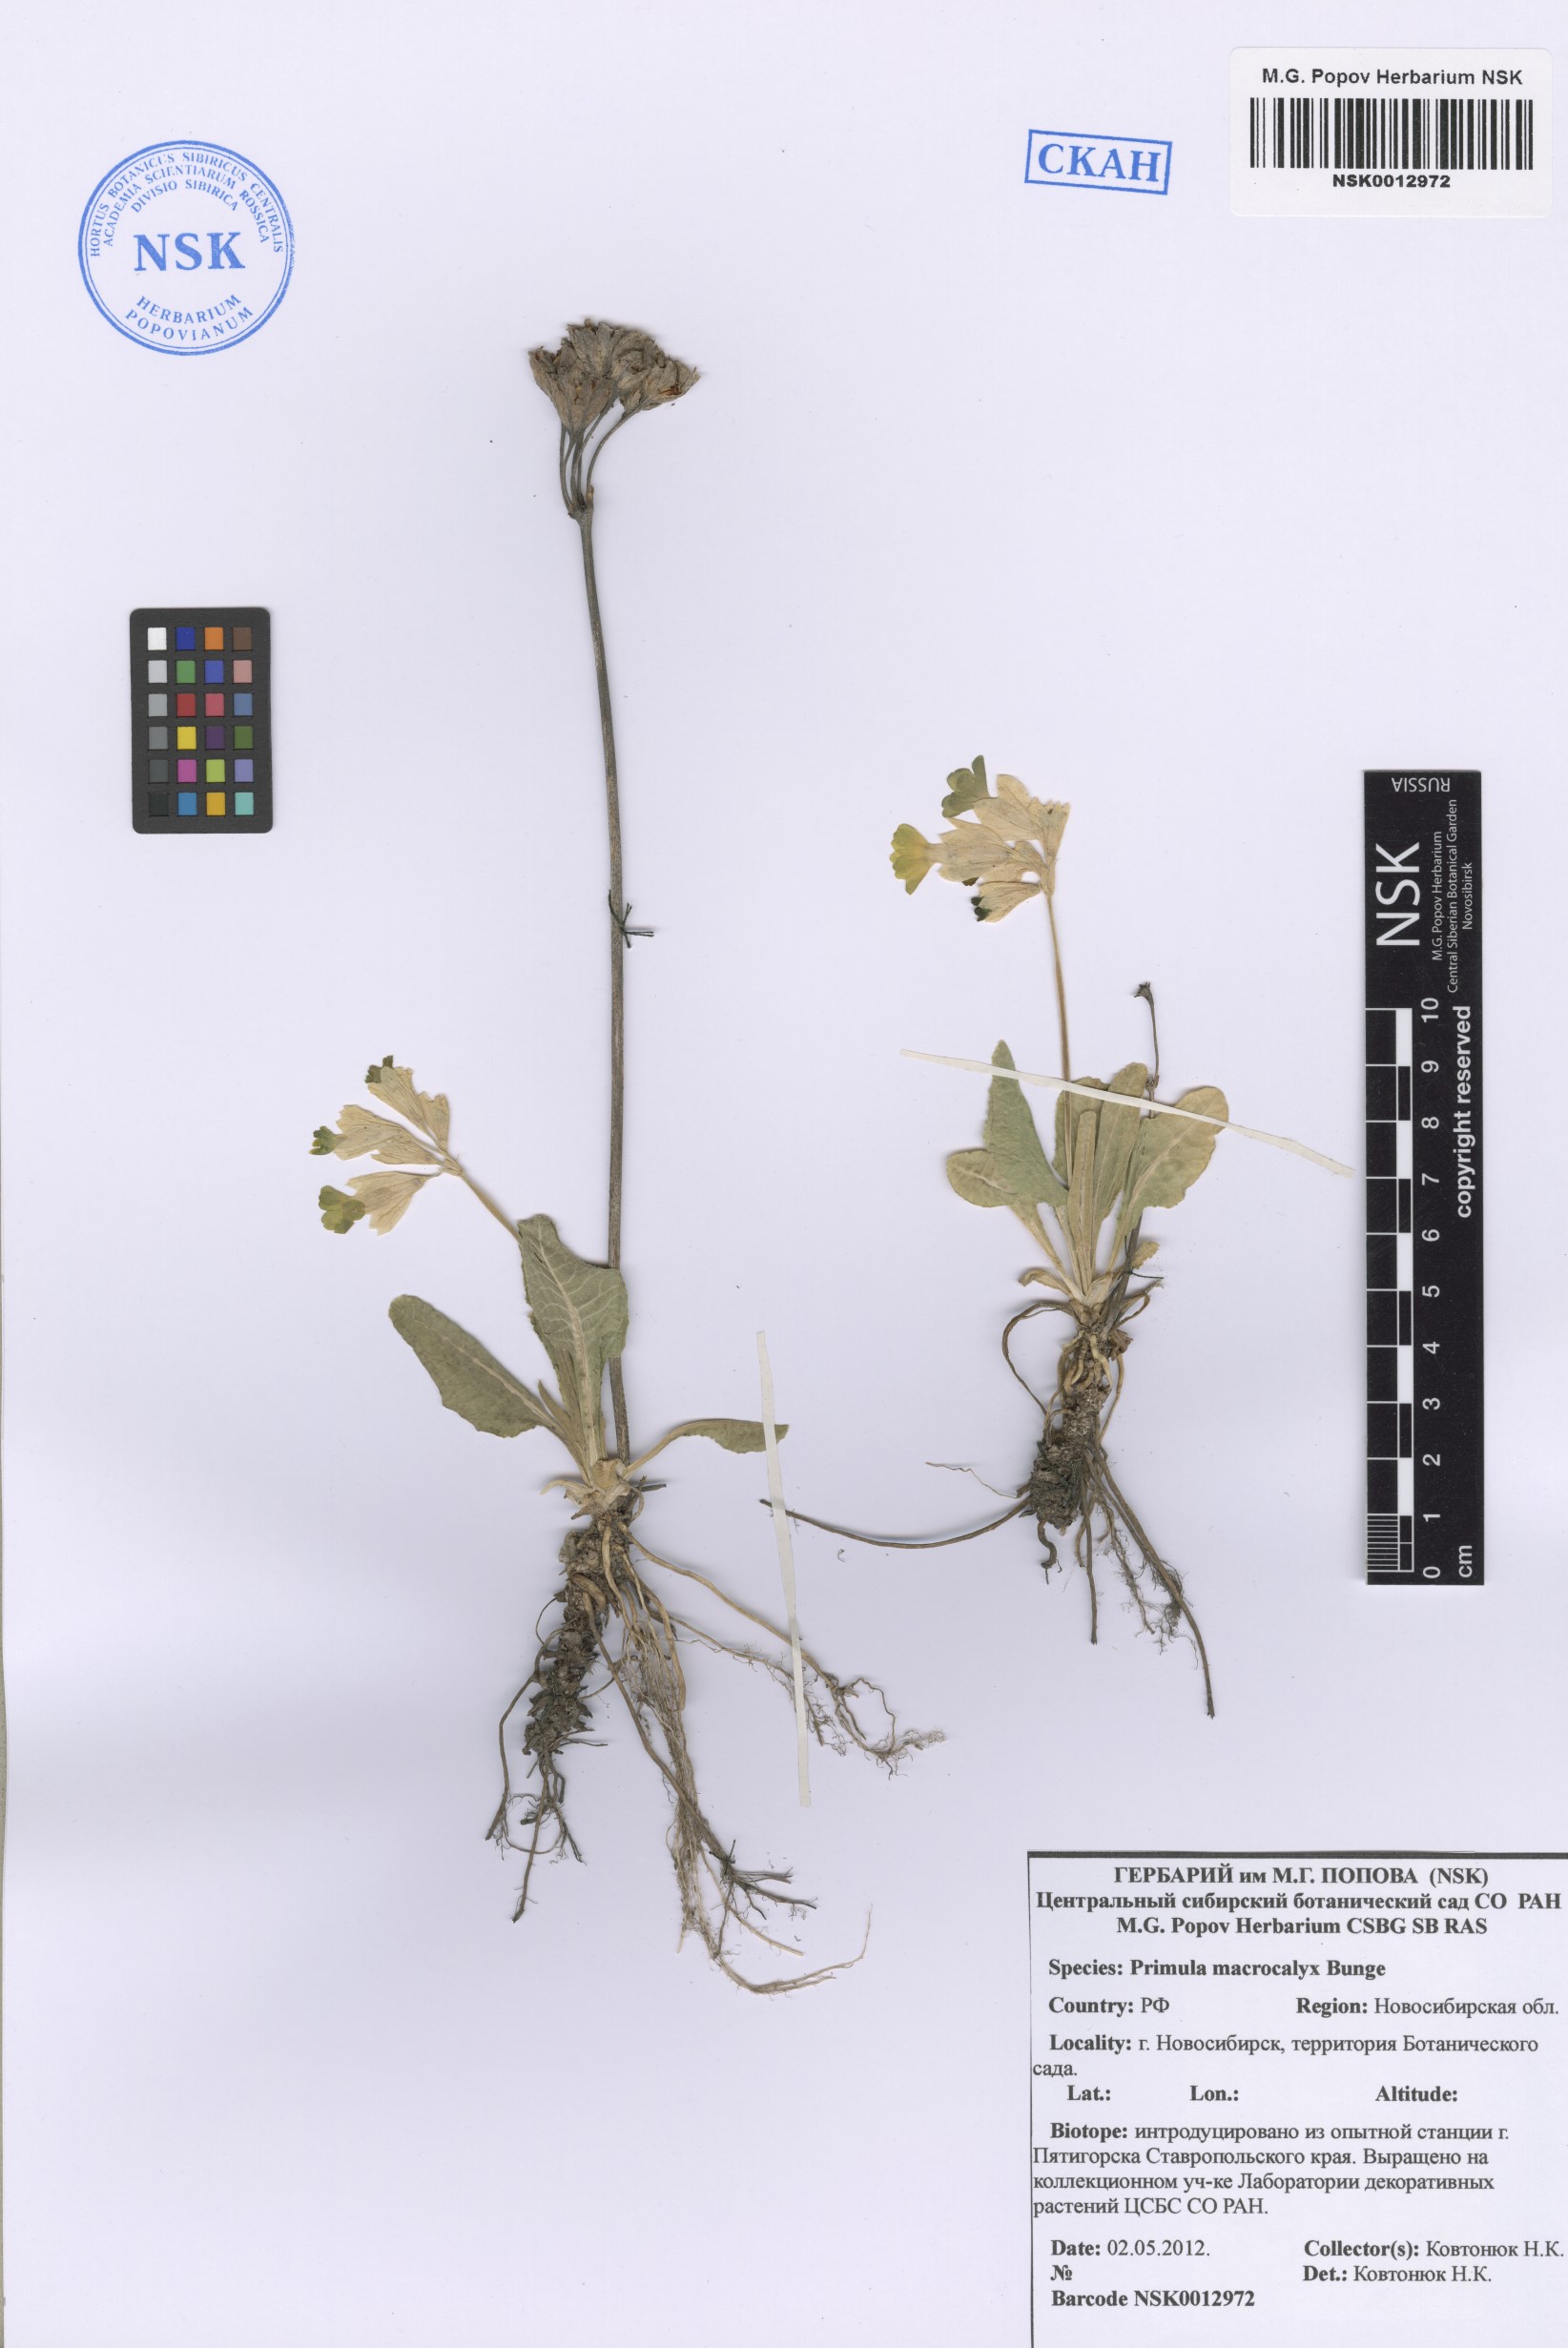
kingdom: Plantae
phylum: Tracheophyta
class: Magnoliopsida
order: Ericales
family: Primulaceae
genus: Primula
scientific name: Primula veris
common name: Cowslip
